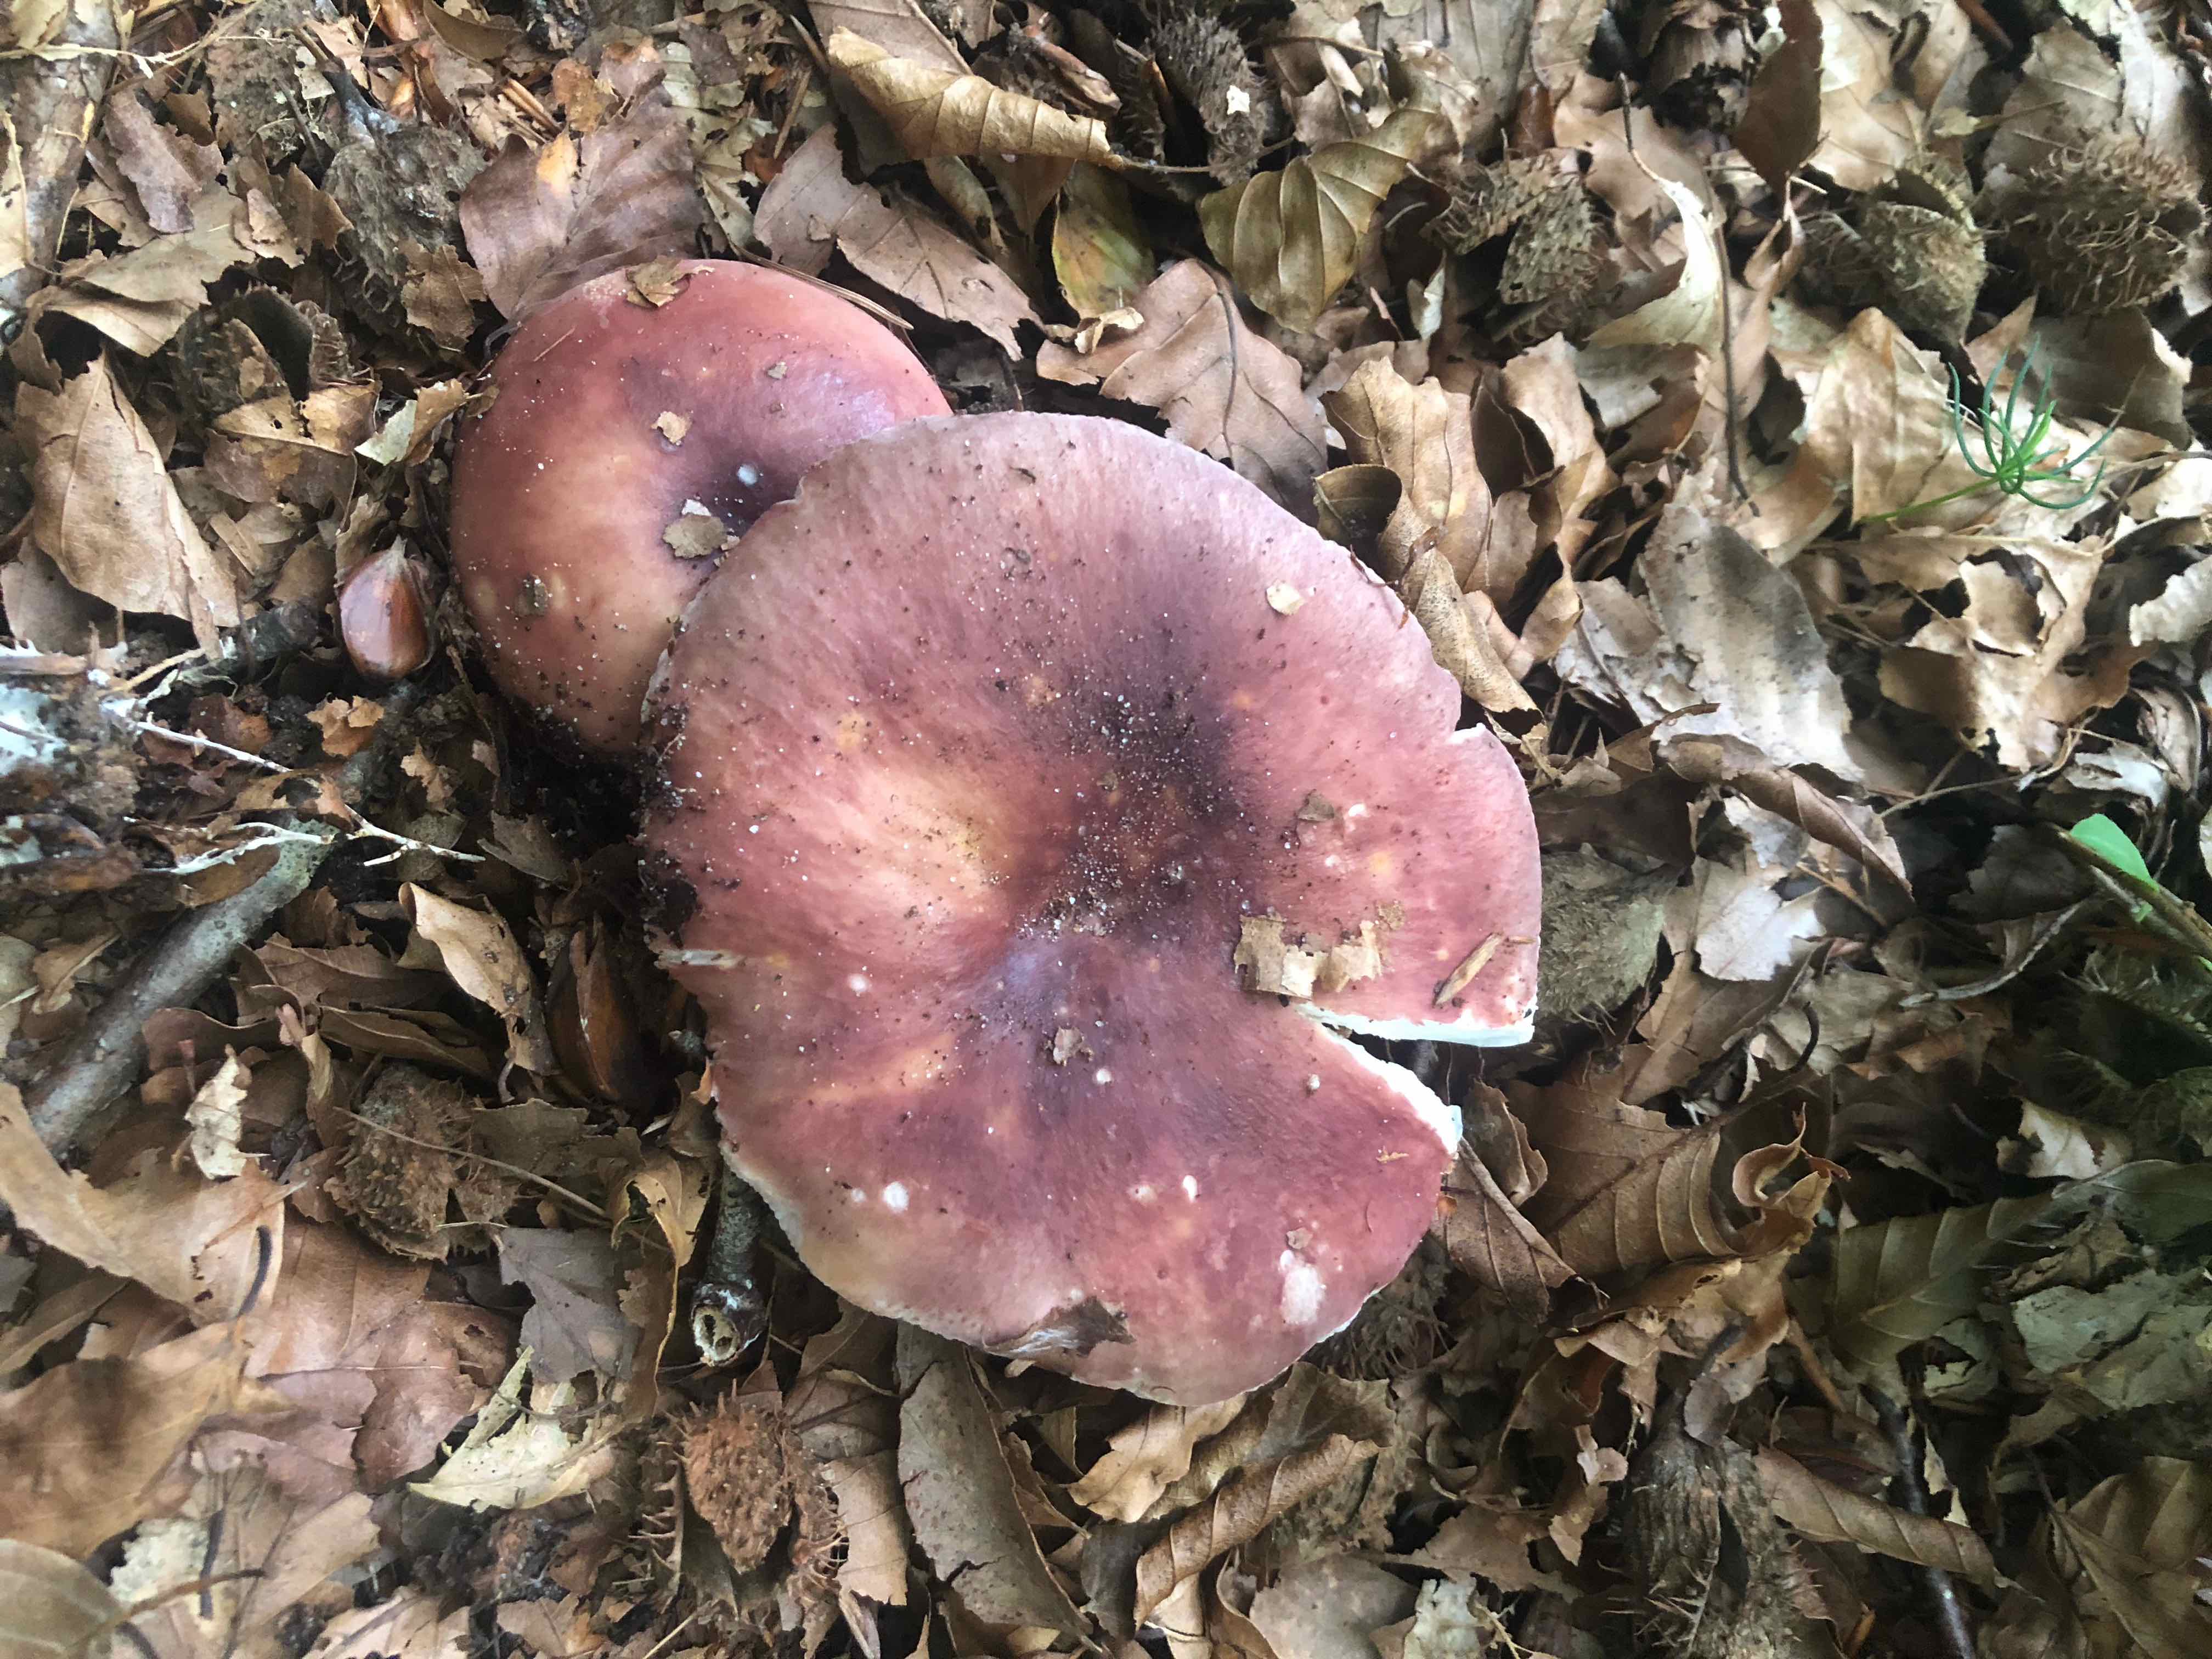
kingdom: Fungi
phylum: Basidiomycota
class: Agaricomycetes
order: Russulales
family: Russulaceae
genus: Russula
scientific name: Russula vesca
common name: spiselig skørhat
